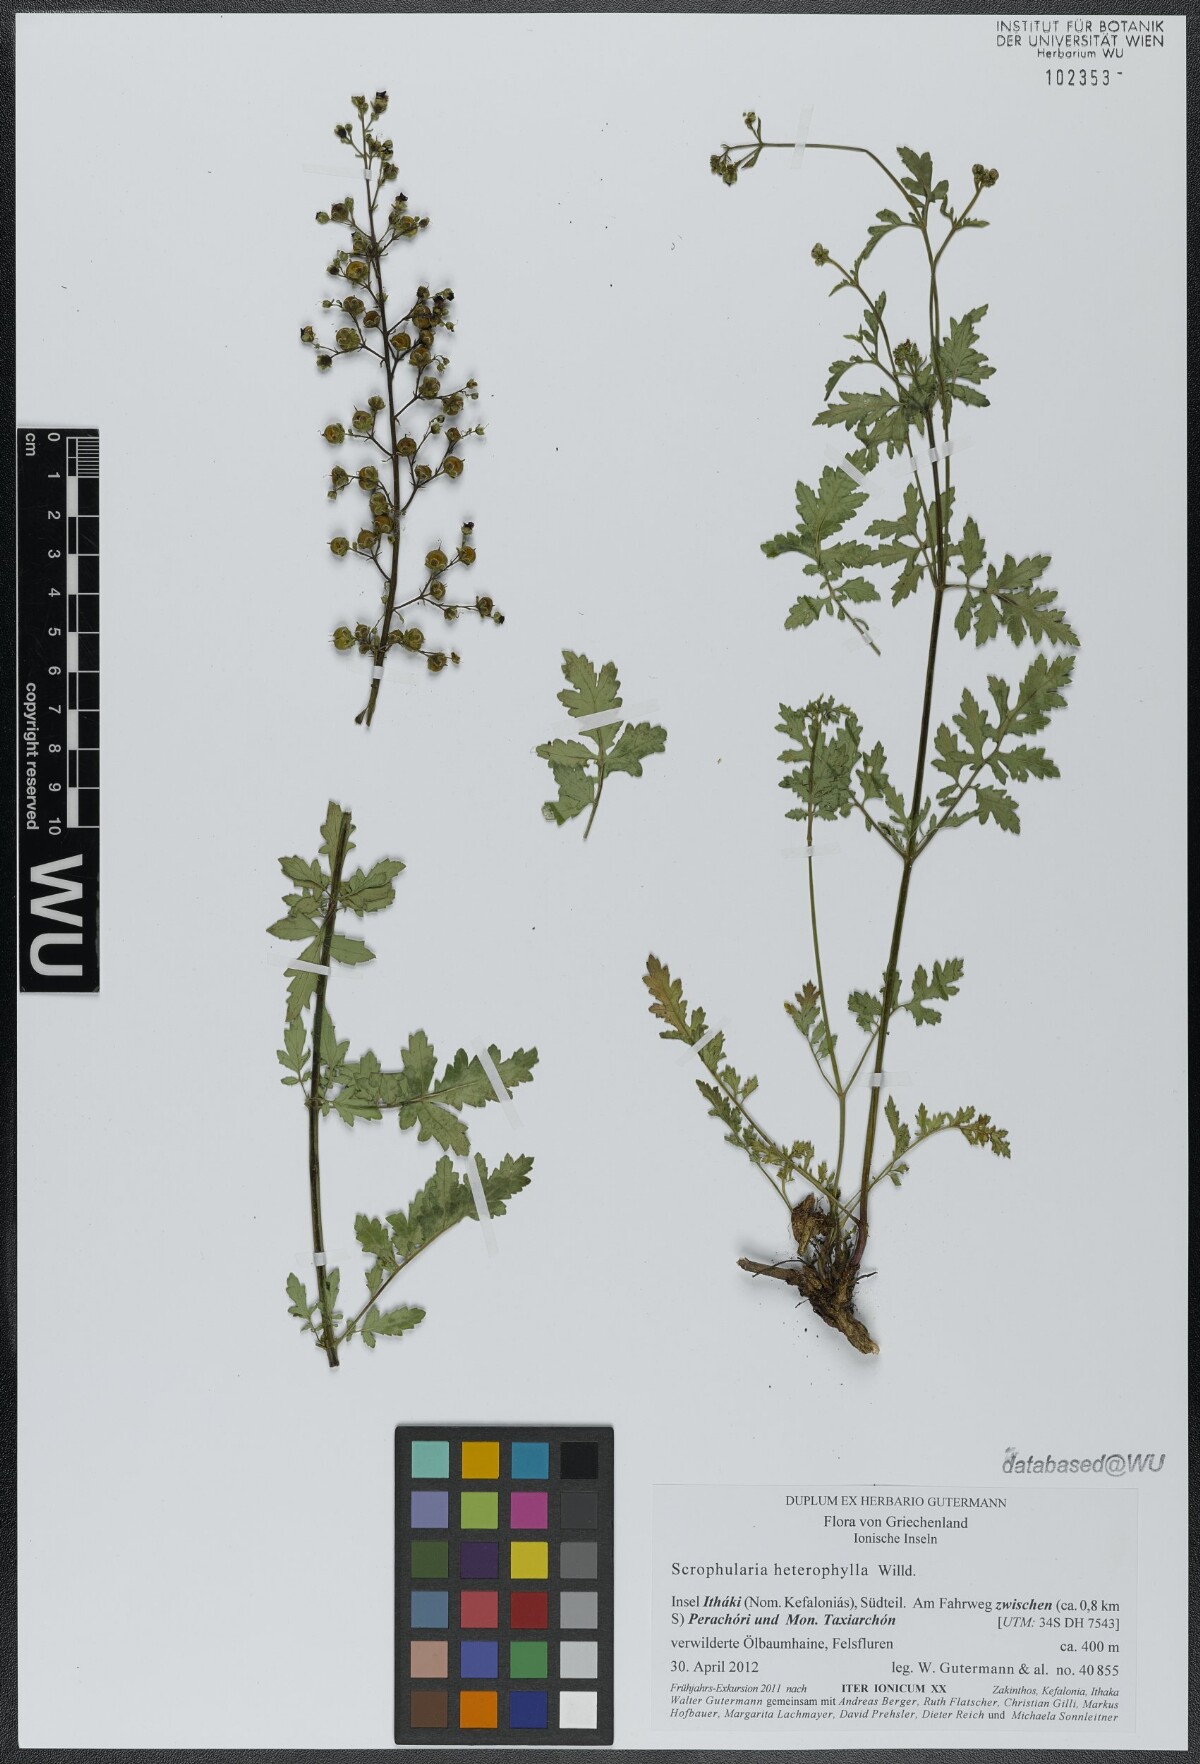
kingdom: Plantae
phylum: Tracheophyta
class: Magnoliopsida
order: Lamiales
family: Scrophulariaceae
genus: Scrophularia
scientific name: Scrophularia heterophylla
